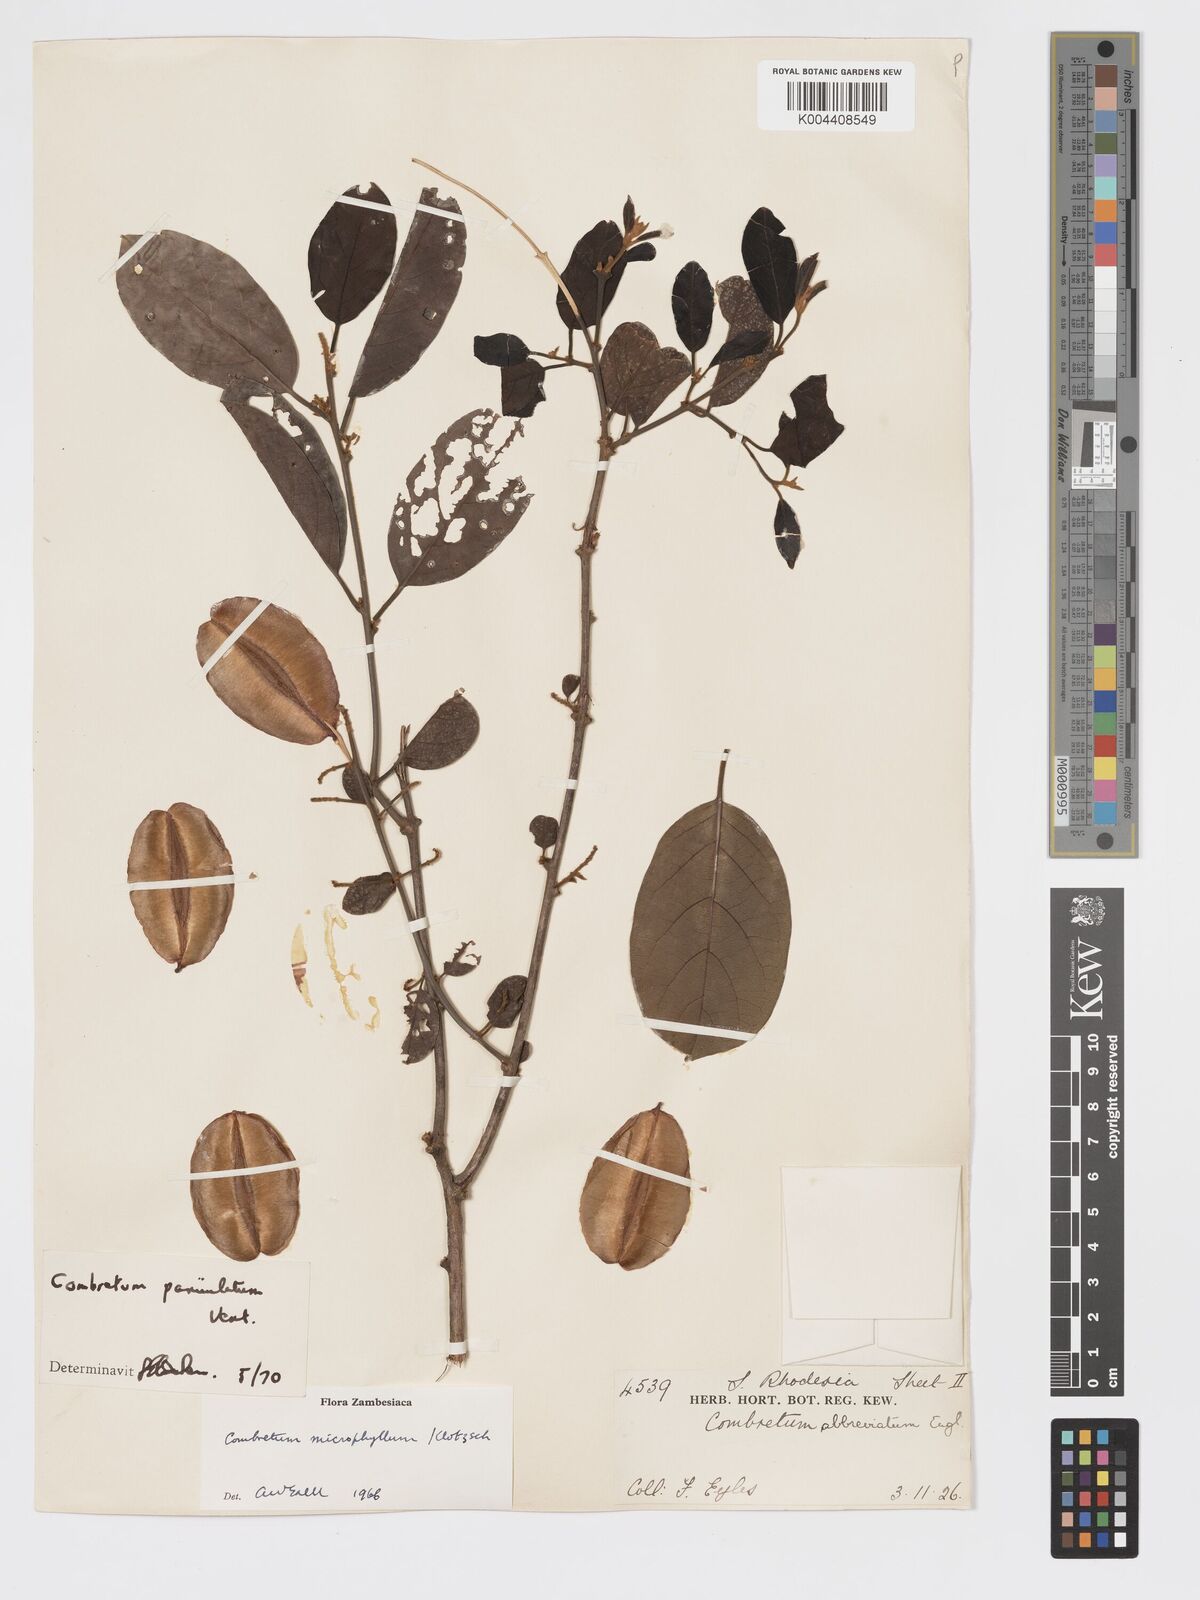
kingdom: Plantae
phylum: Tracheophyta
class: Magnoliopsida
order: Myrtales
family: Combretaceae
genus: Combretum
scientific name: Combretum paniculatum
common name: Fire vine
